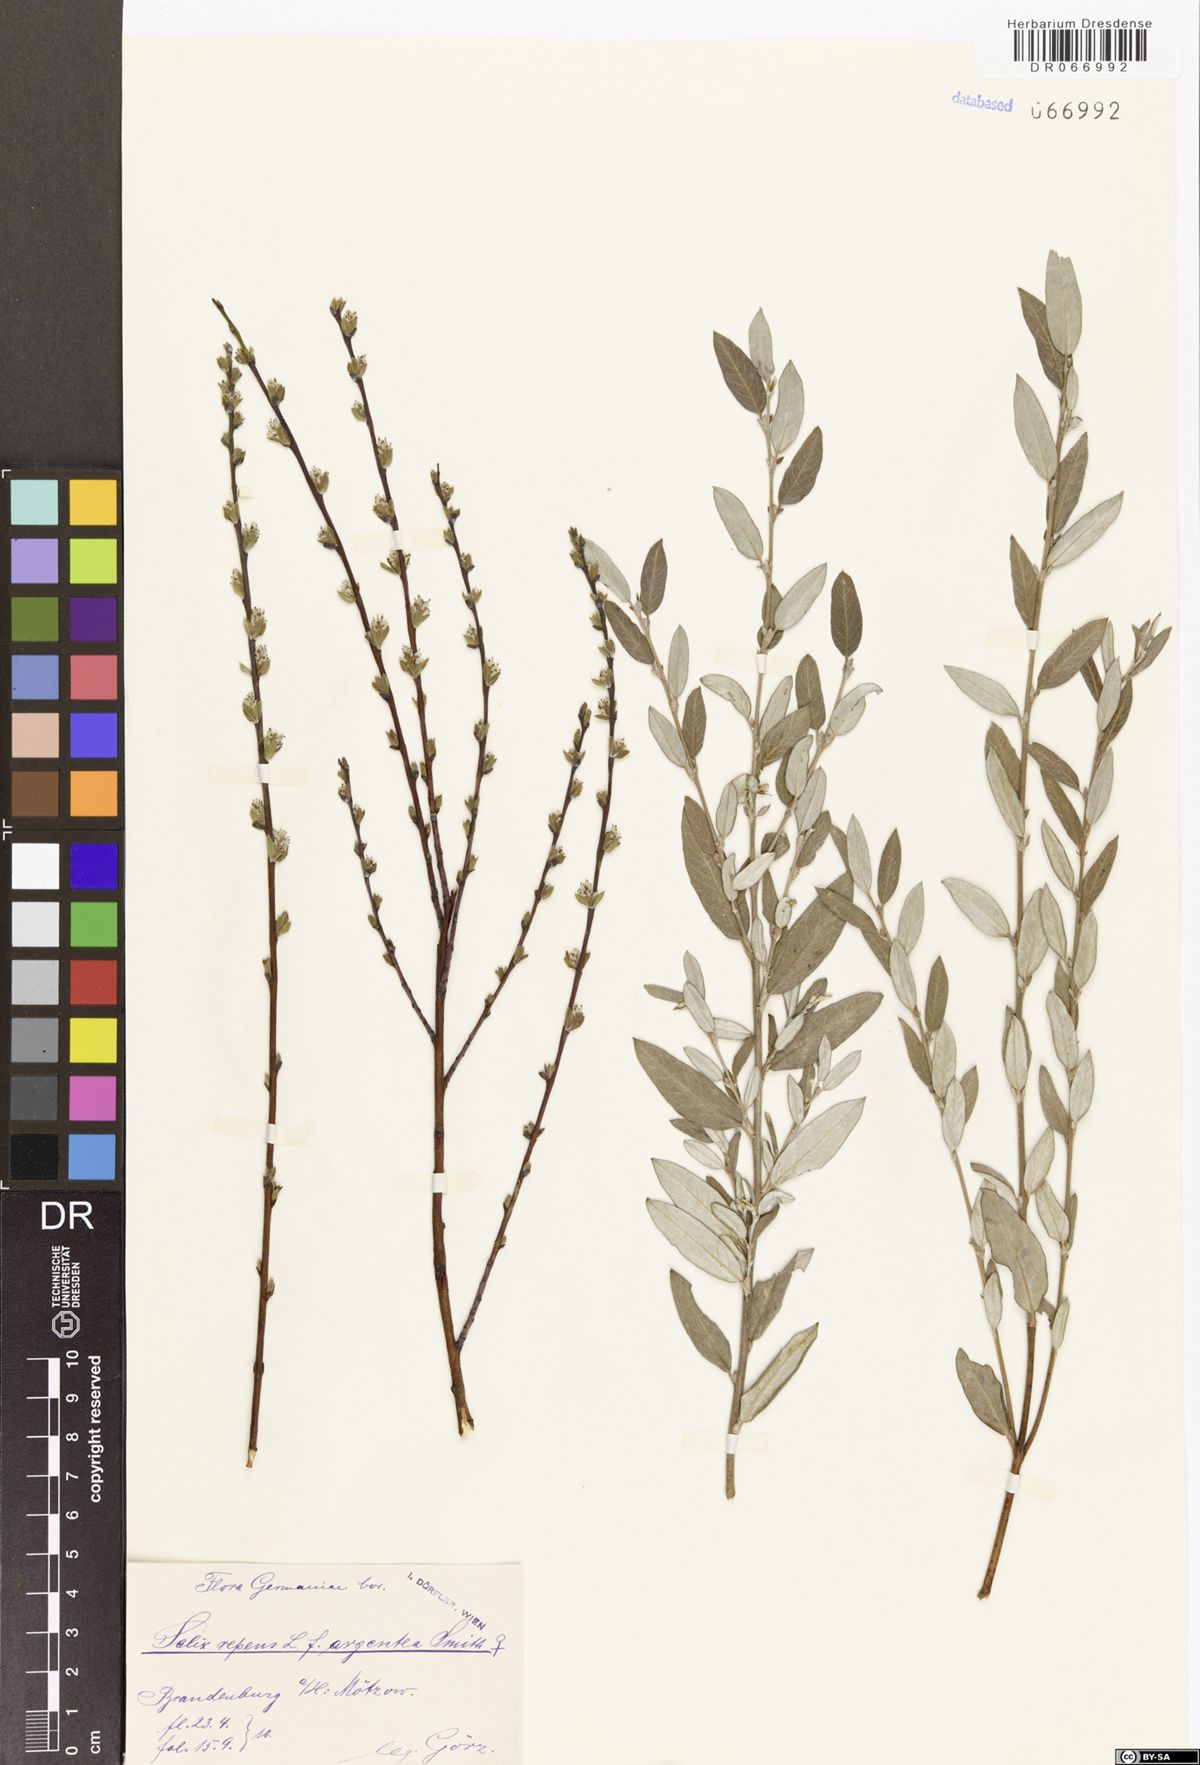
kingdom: Plantae
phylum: Tracheophyta
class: Magnoliopsida
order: Malpighiales
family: Salicaceae
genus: Salix
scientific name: Salix repens
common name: Creeping willow
